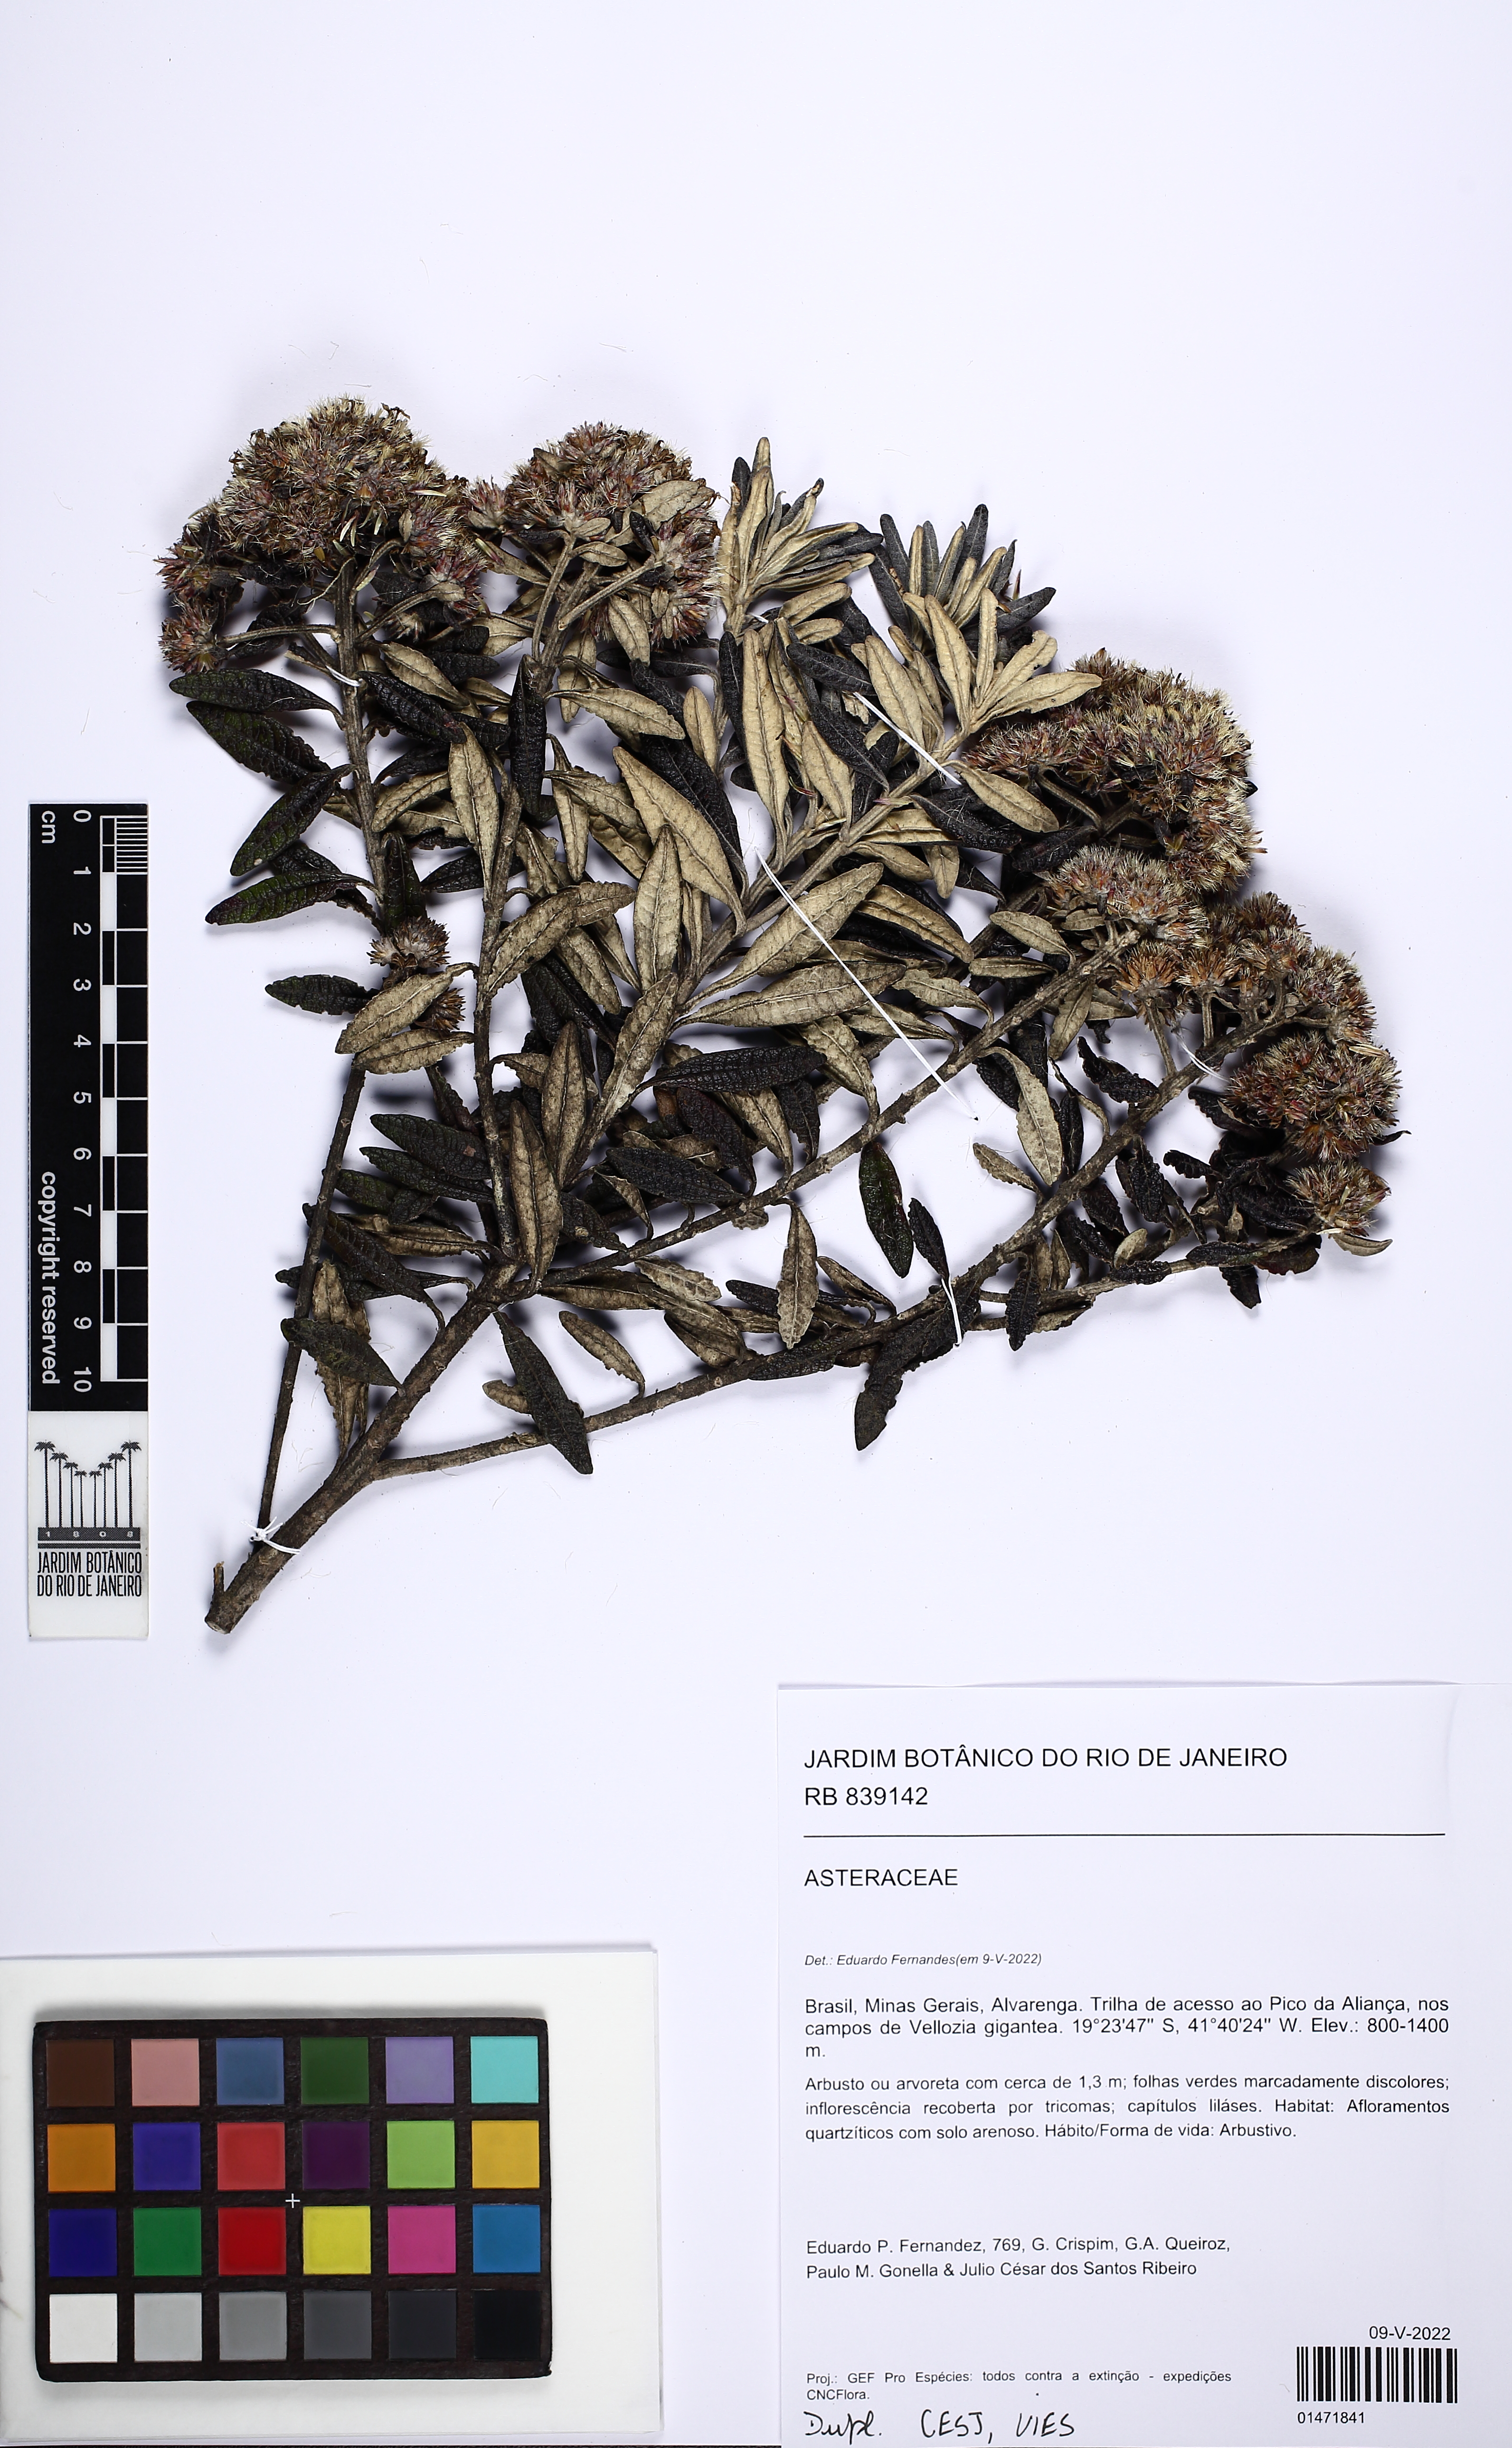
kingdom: Plantae
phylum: Tracheophyta
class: Magnoliopsida
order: Asterales
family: Asteraceae
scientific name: Asteraceae
